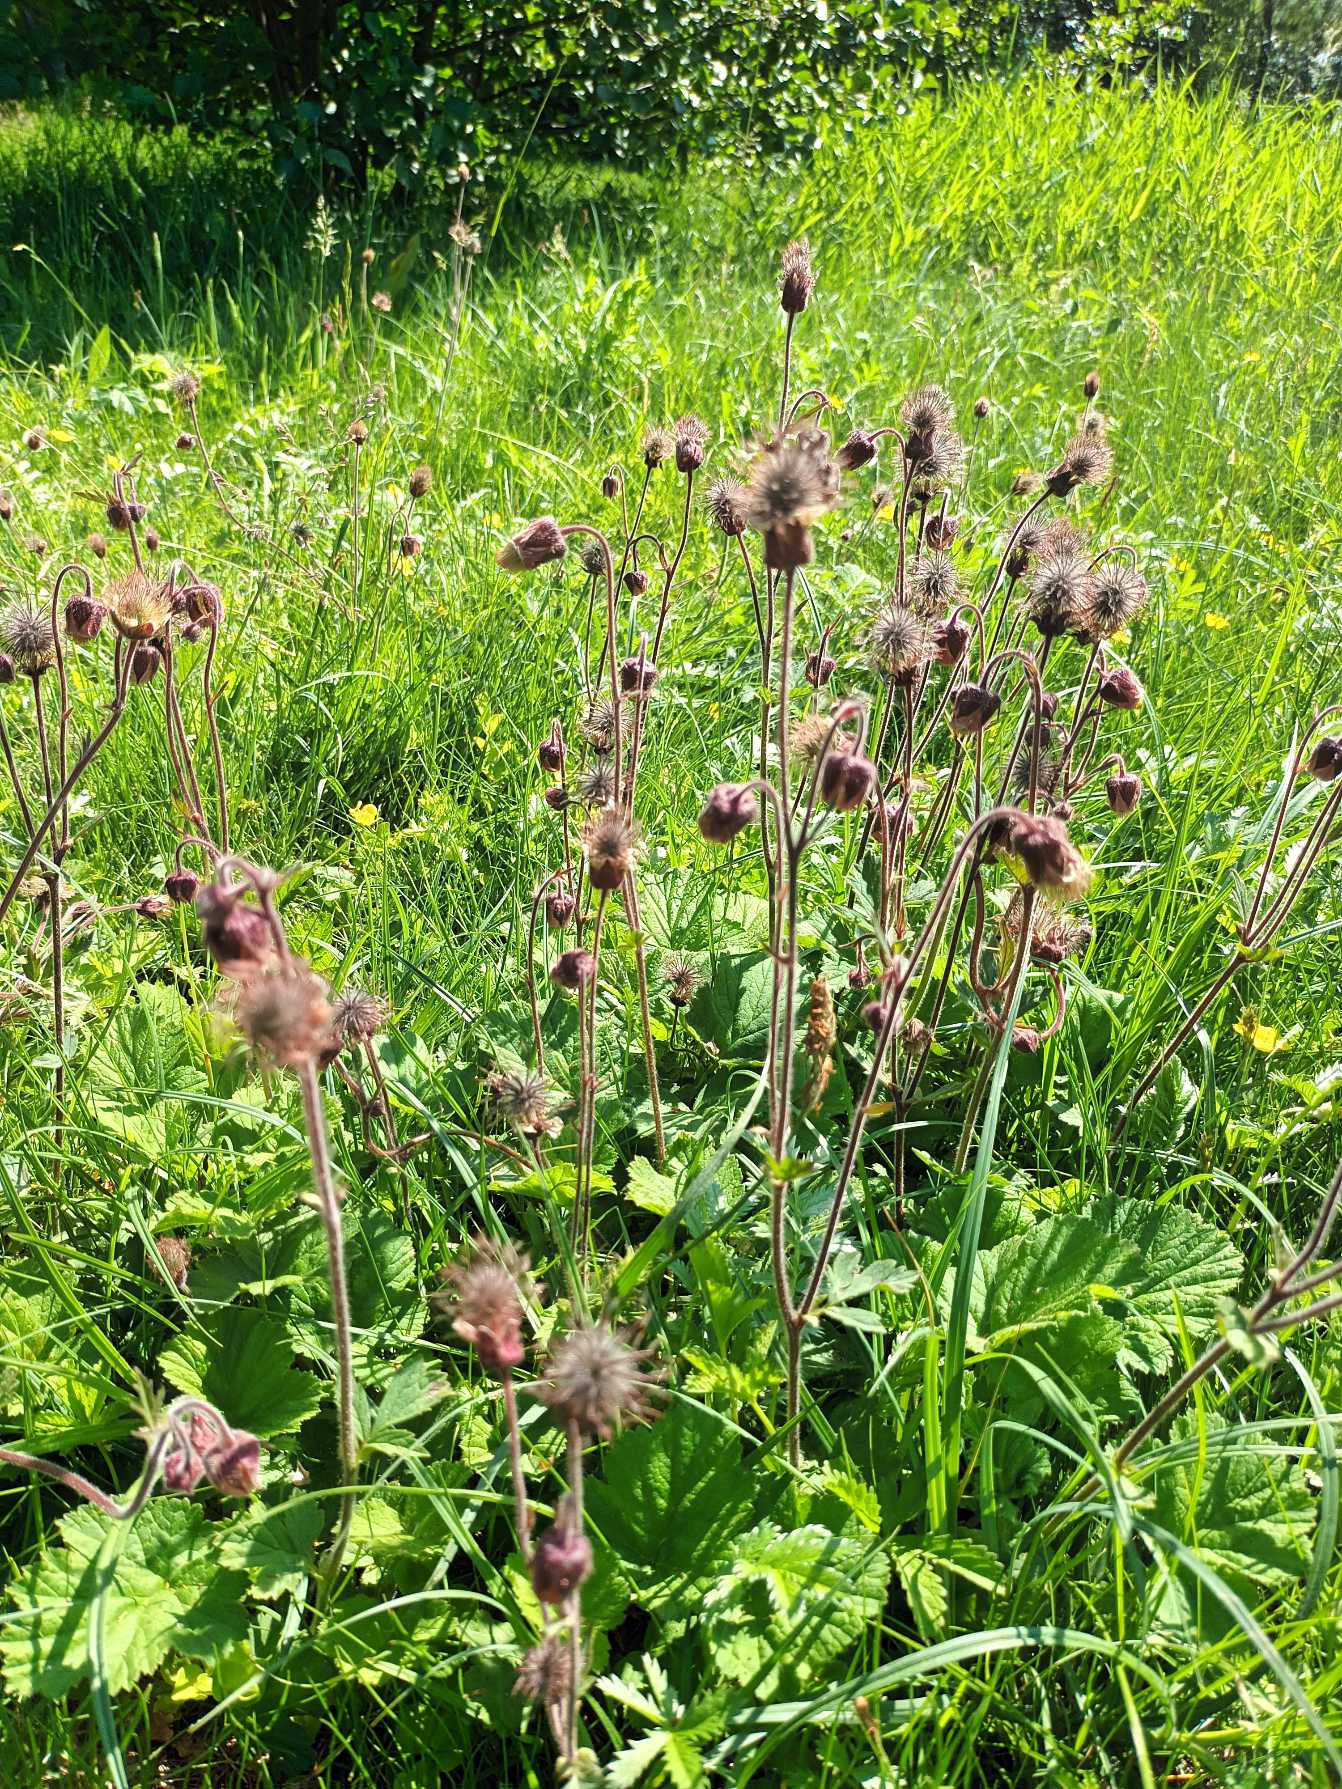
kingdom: Plantae
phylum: Tracheophyta
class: Magnoliopsida
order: Rosales
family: Rosaceae
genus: Geum
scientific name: Geum rivale
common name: Eng-nellikerod
